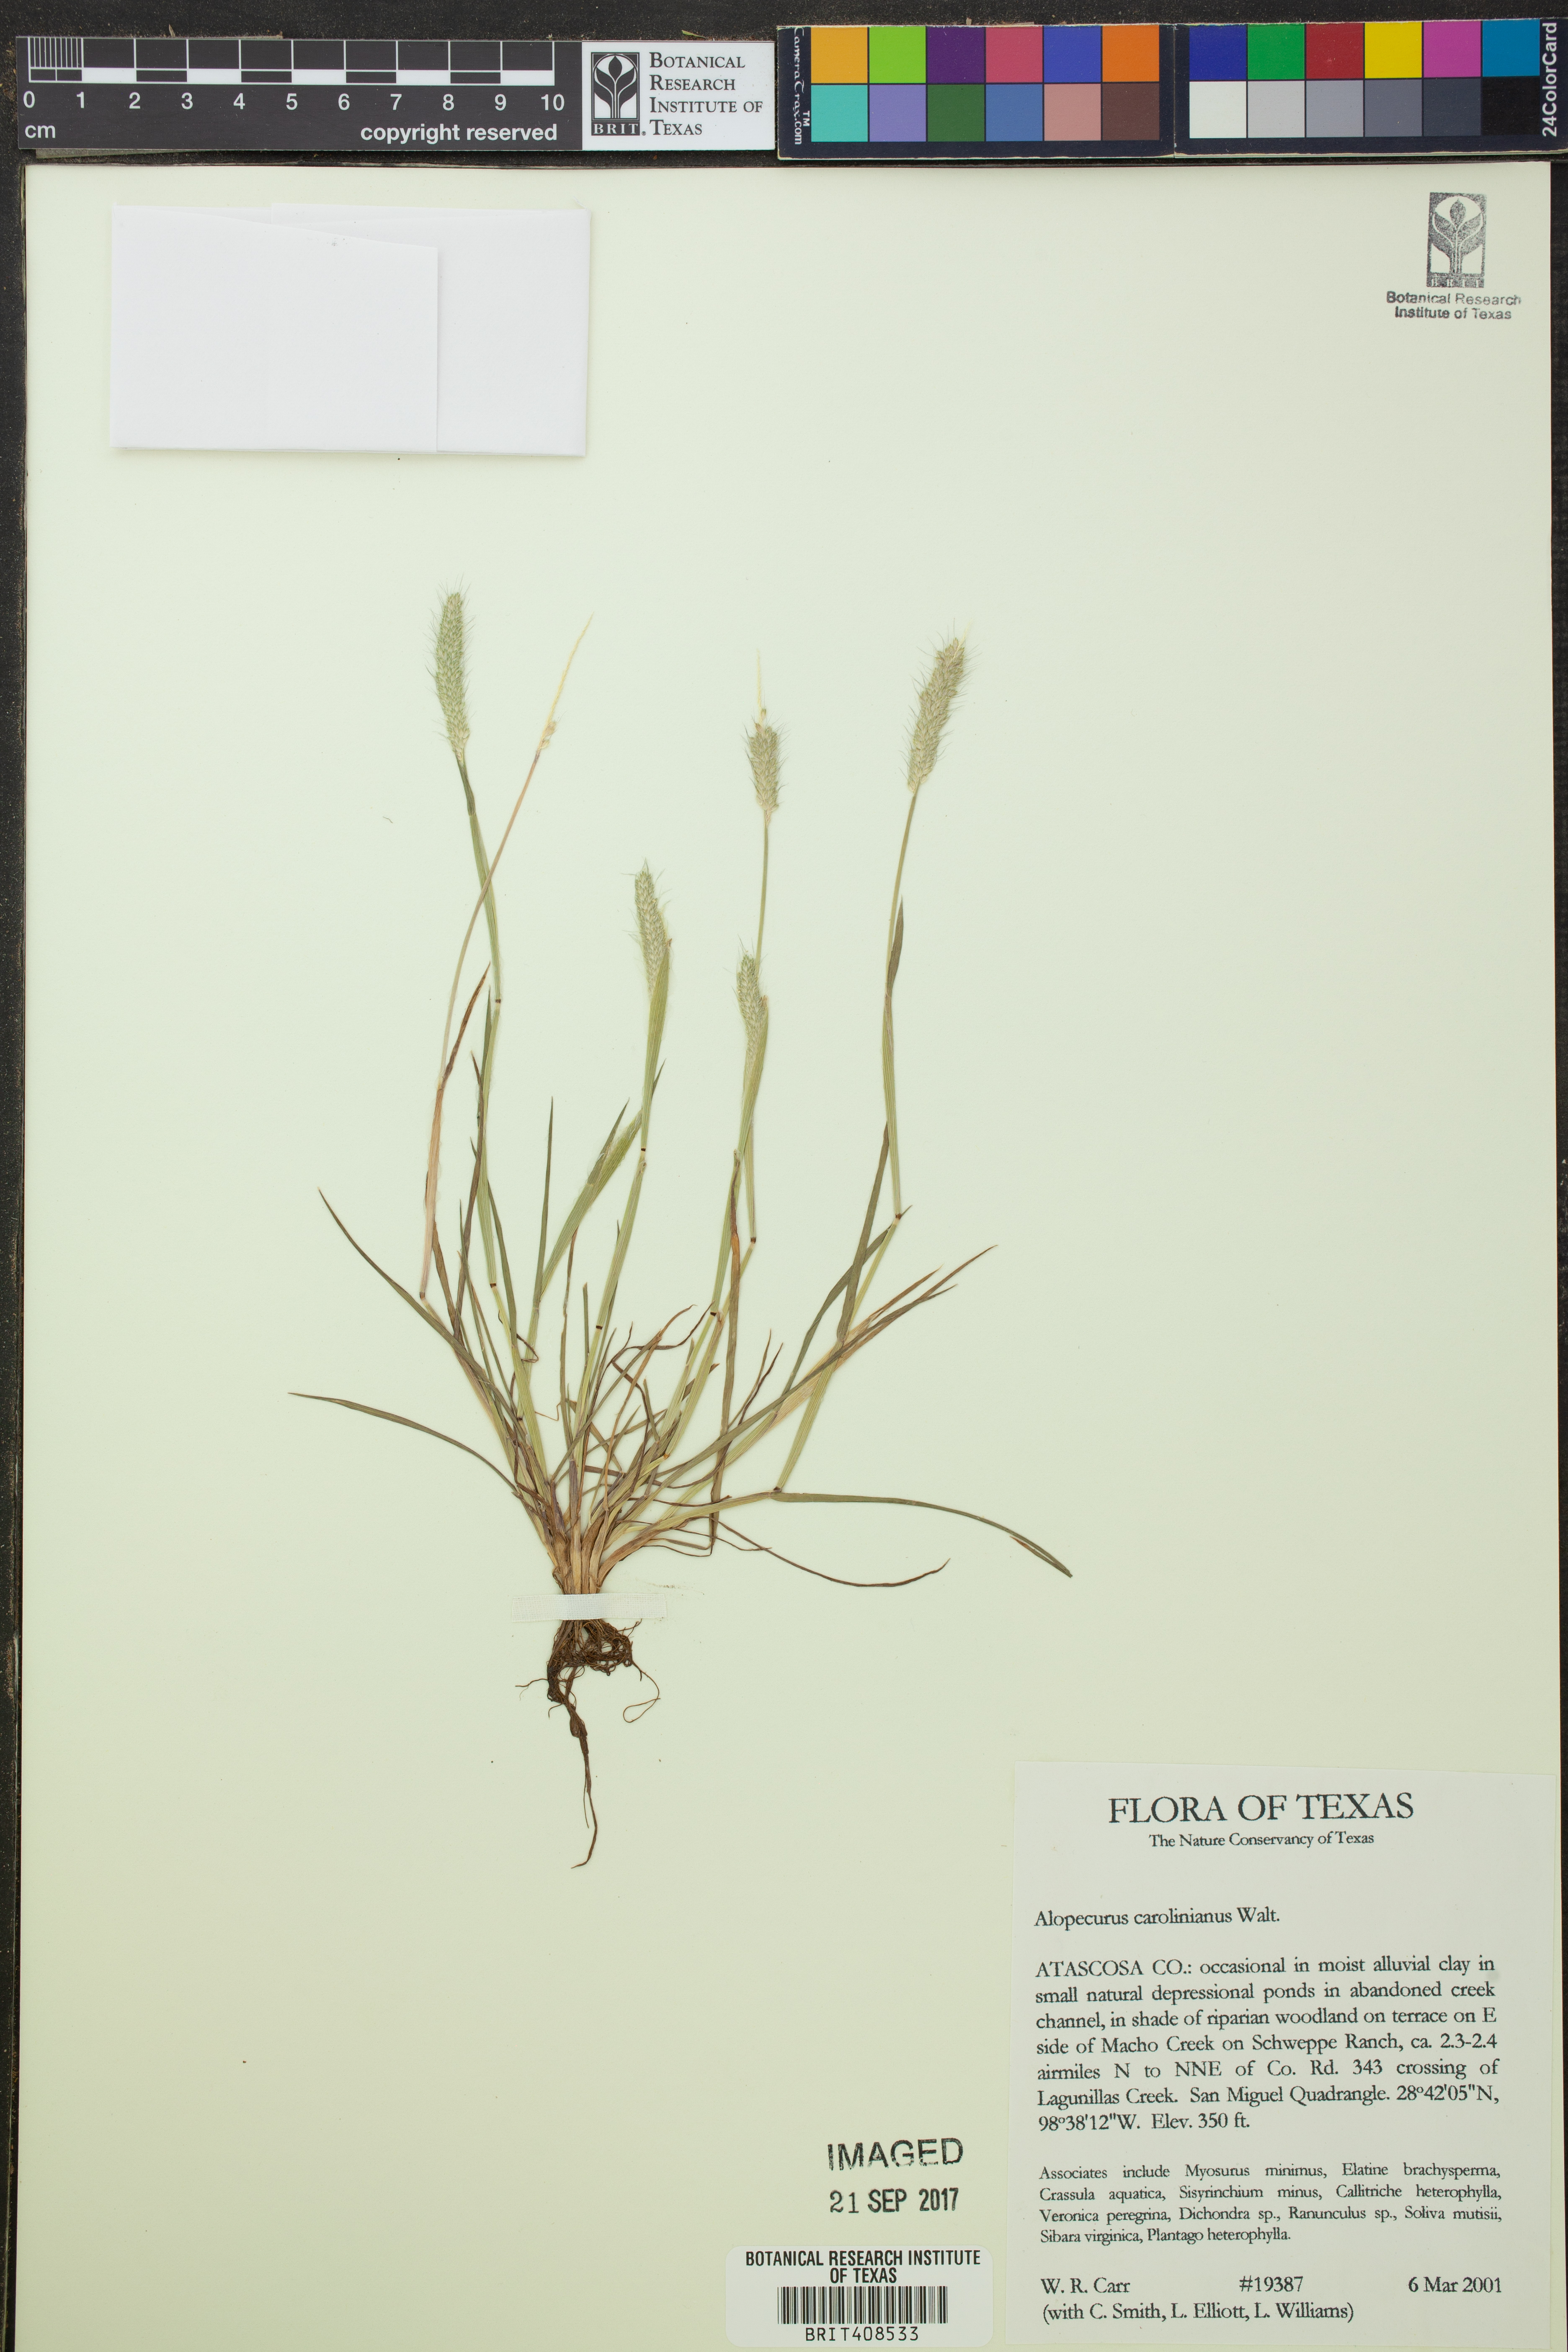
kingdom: Plantae
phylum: Tracheophyta
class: Liliopsida
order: Poales
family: Poaceae
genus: Alopecurus
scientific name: Alopecurus carolinianus
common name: Tufted foxtail
